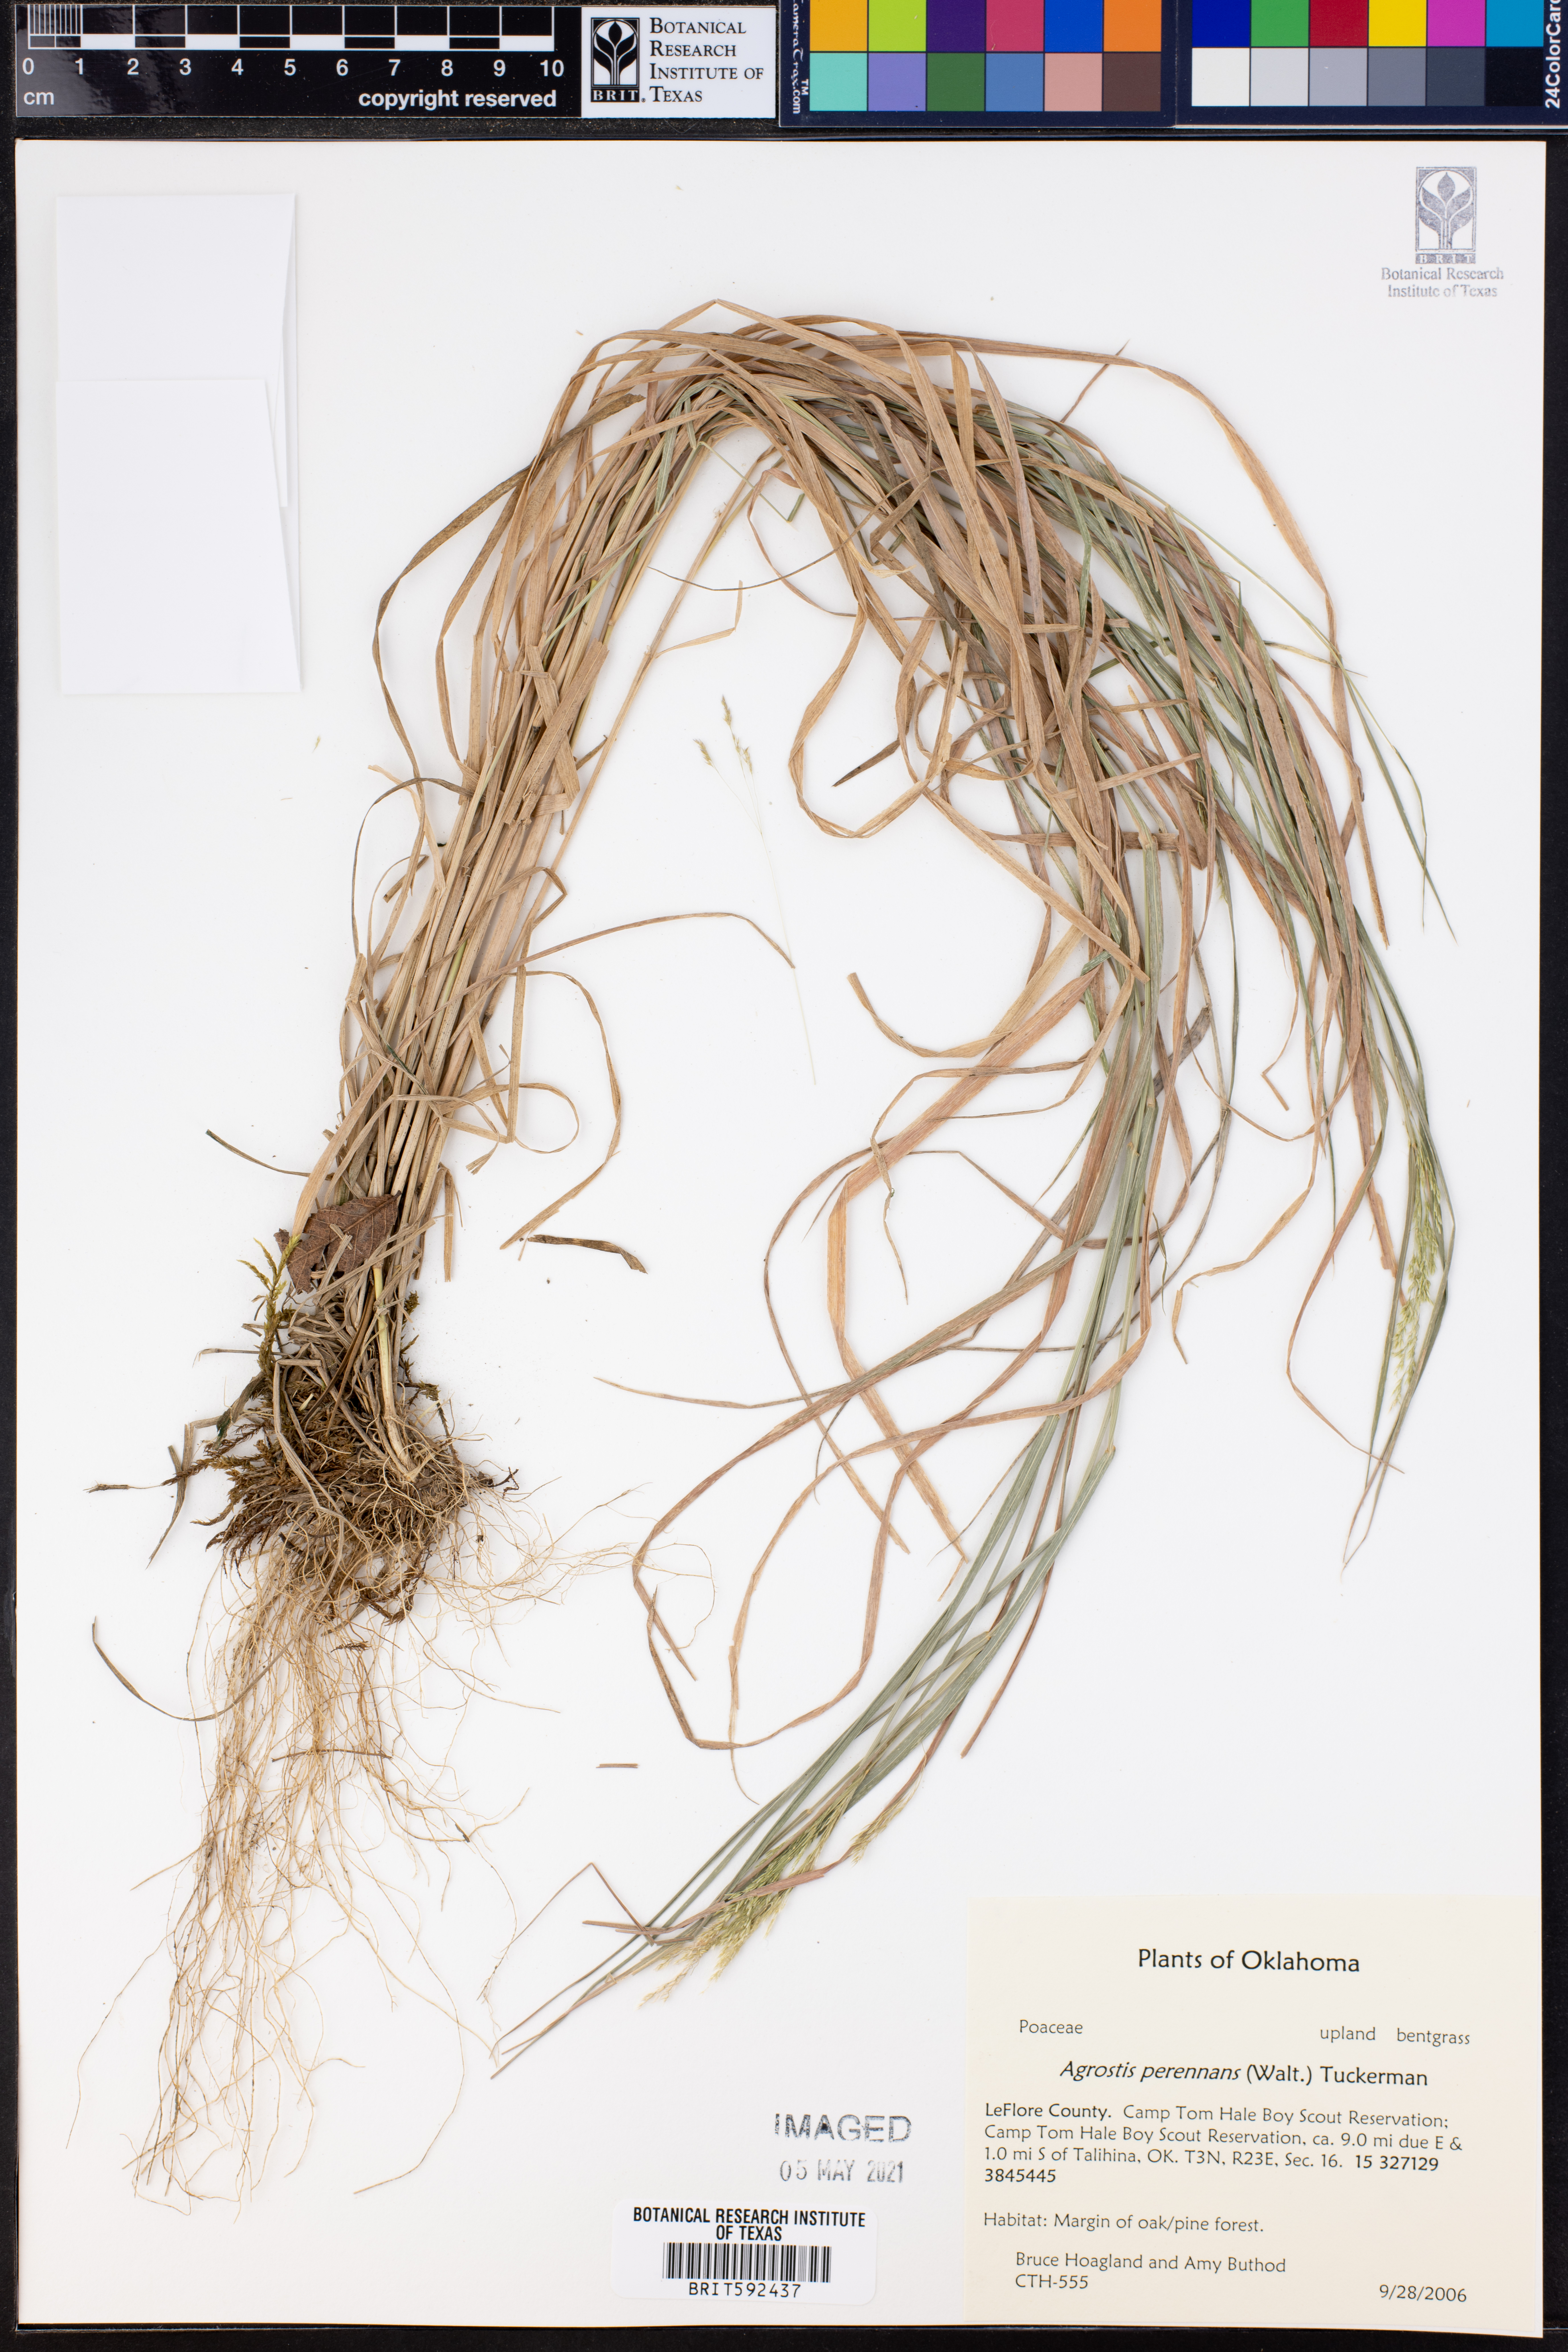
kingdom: Plantae
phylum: Tracheophyta
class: Liliopsida
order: Poales
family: Poaceae
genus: Agrostis
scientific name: Agrostis perennans
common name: Autumn bent
